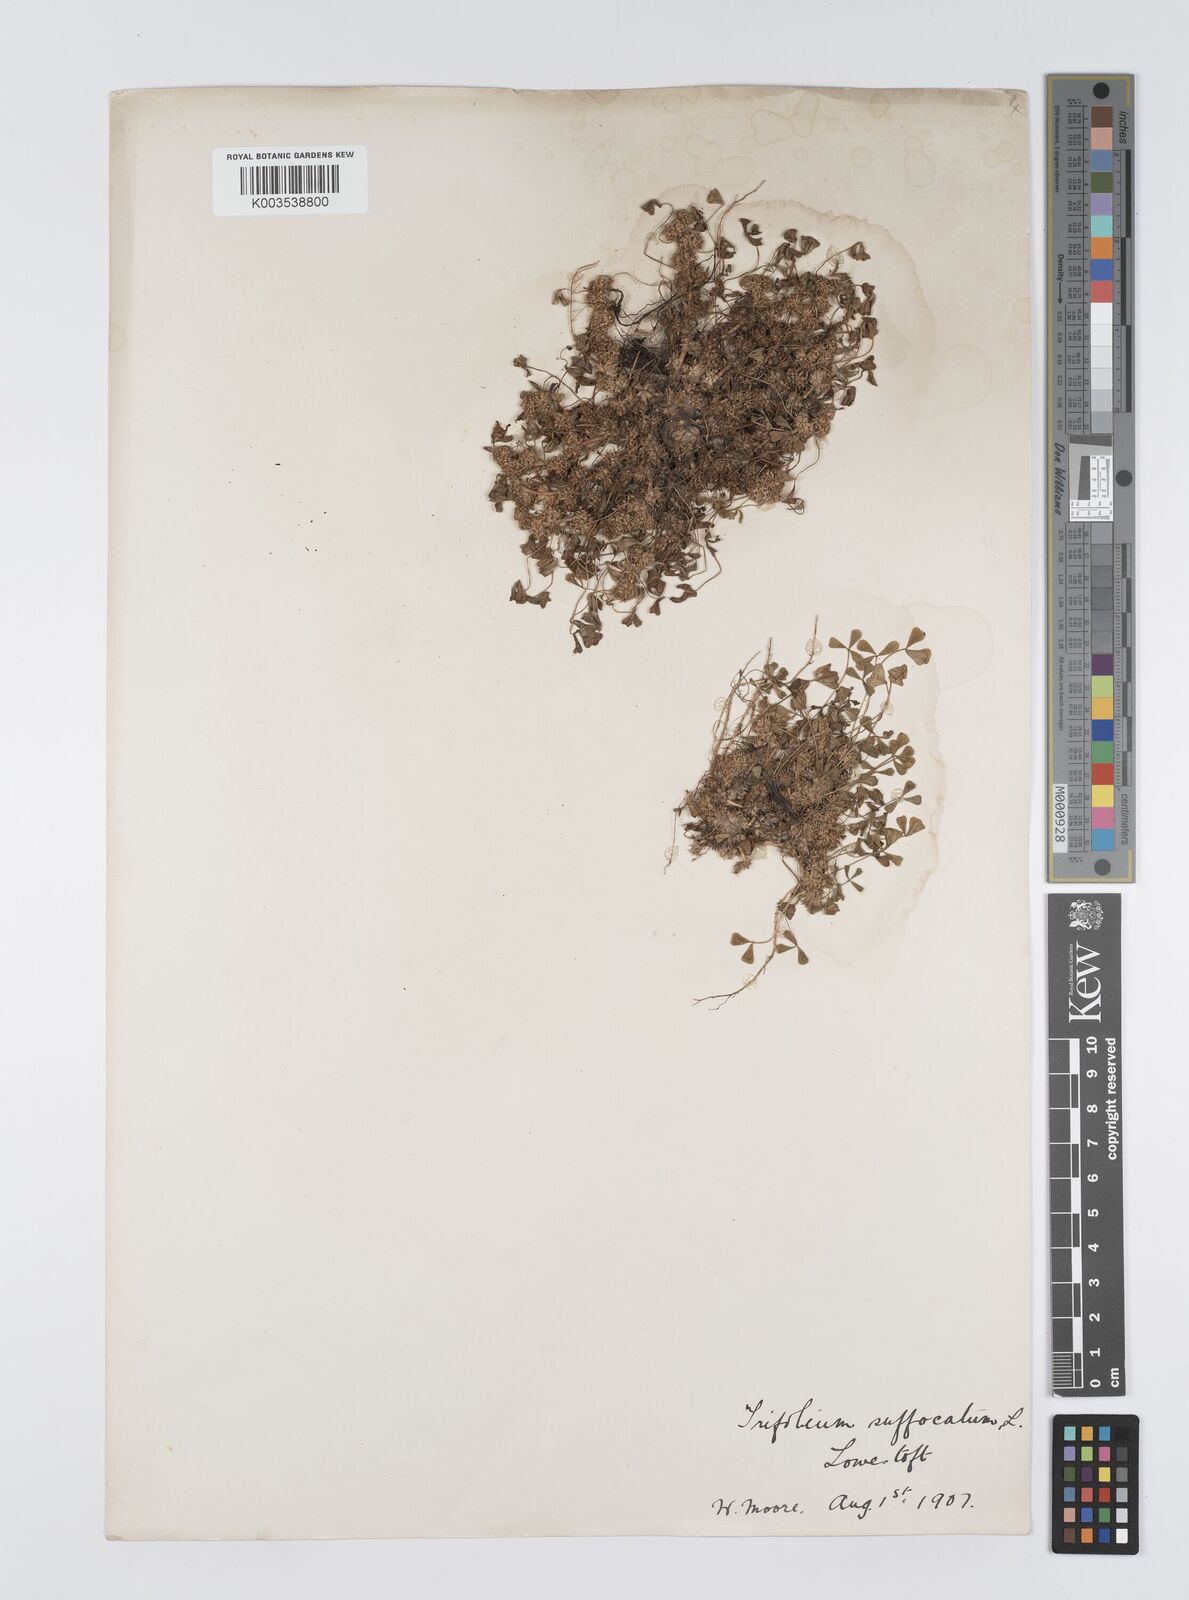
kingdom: Plantae
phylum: Tracheophyta
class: Magnoliopsida
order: Fabales
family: Fabaceae
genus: Trifolium
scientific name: Trifolium suffocatum
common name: Suffocated clover
